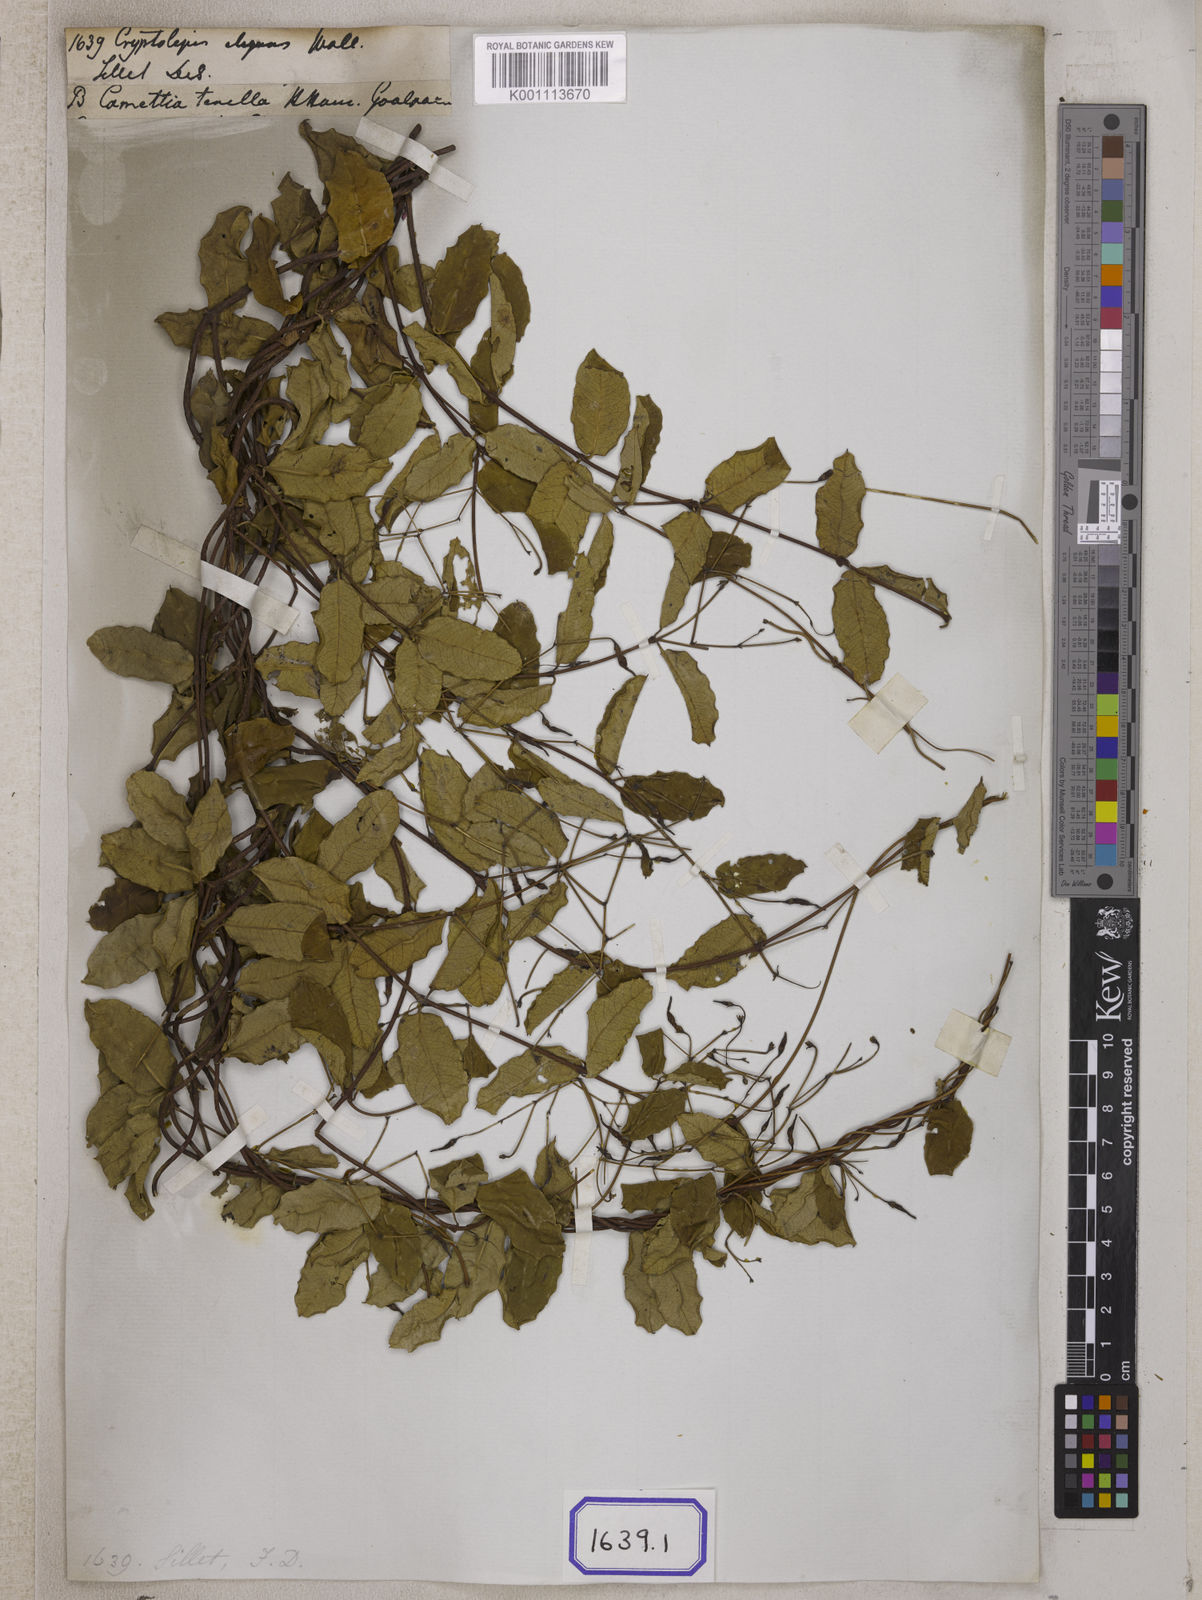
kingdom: Plantae
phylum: Tracheophyta
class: Magnoliopsida
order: Gentianales
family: Apocynaceae
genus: Cryptolepis
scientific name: Cryptolepis
